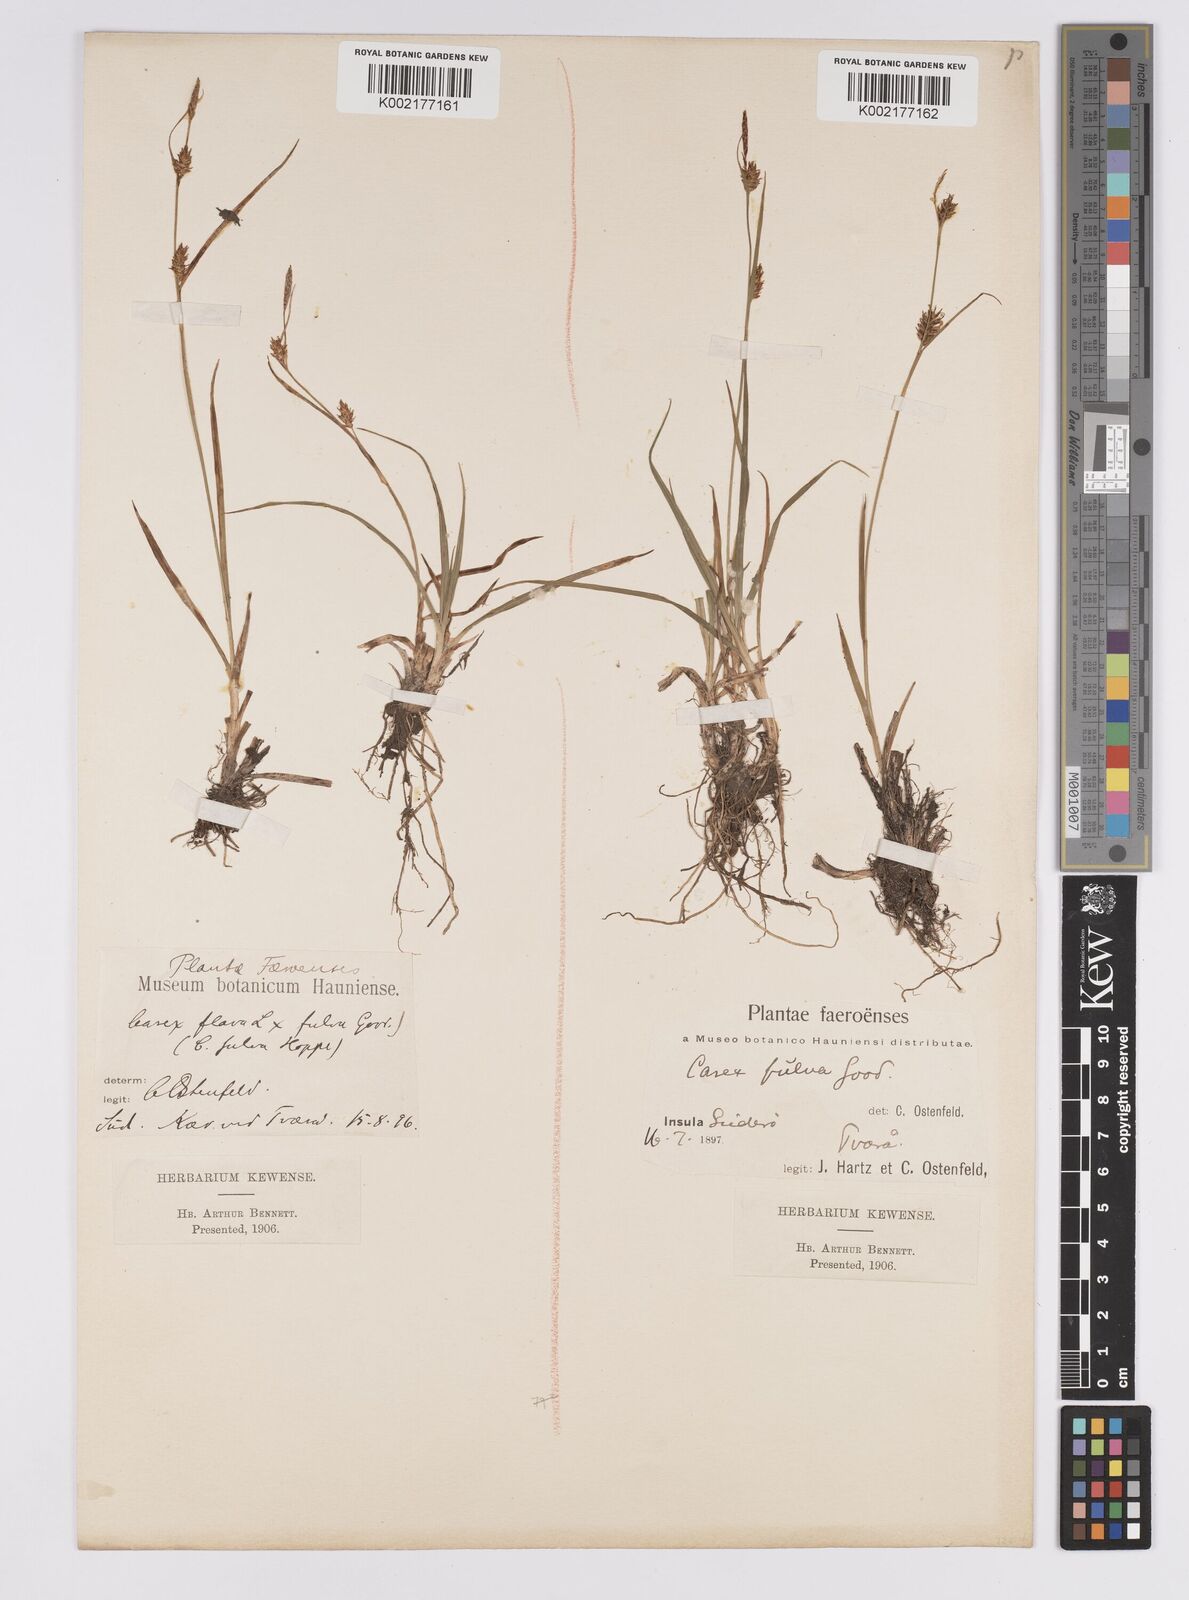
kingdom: Plantae
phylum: Tracheophyta
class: Liliopsida
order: Poales
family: Cyperaceae
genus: Carex
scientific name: Carex hostiana
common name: Tawny sedge
